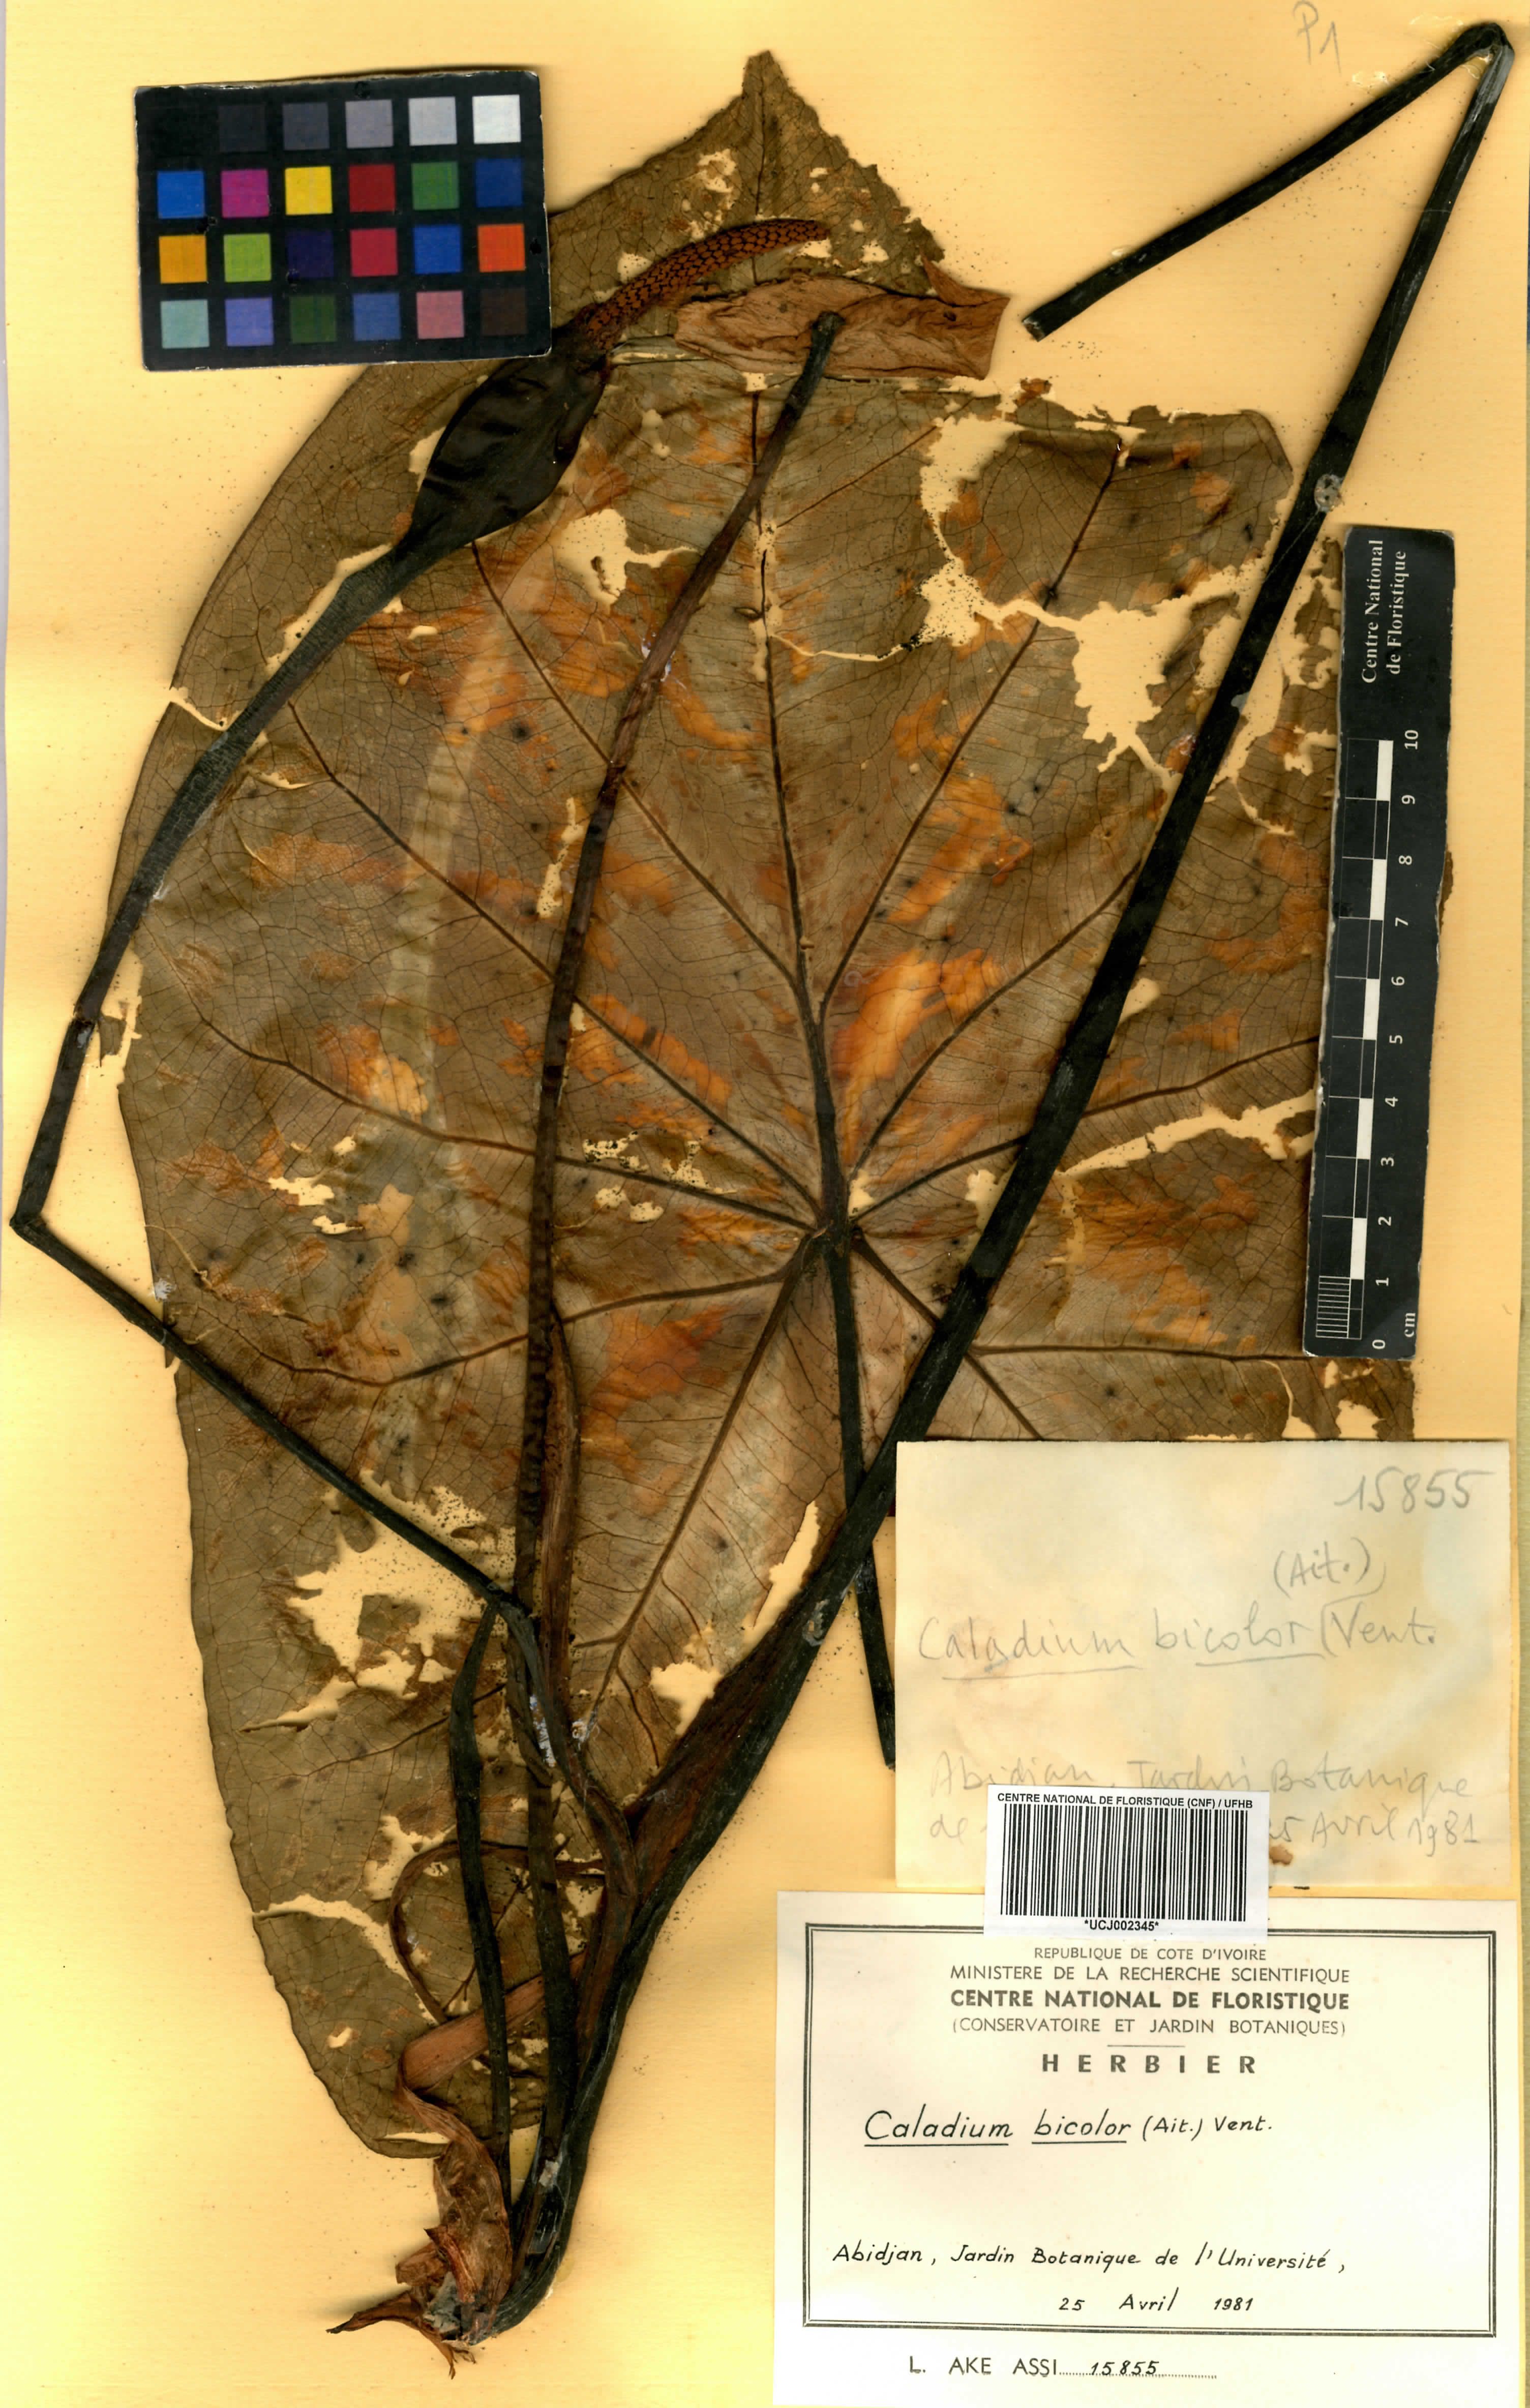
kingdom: Plantae
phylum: Tracheophyta
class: Liliopsida
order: Alismatales
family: Araceae
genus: Caladium
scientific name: Caladium bicolor
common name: Artist's pallet
